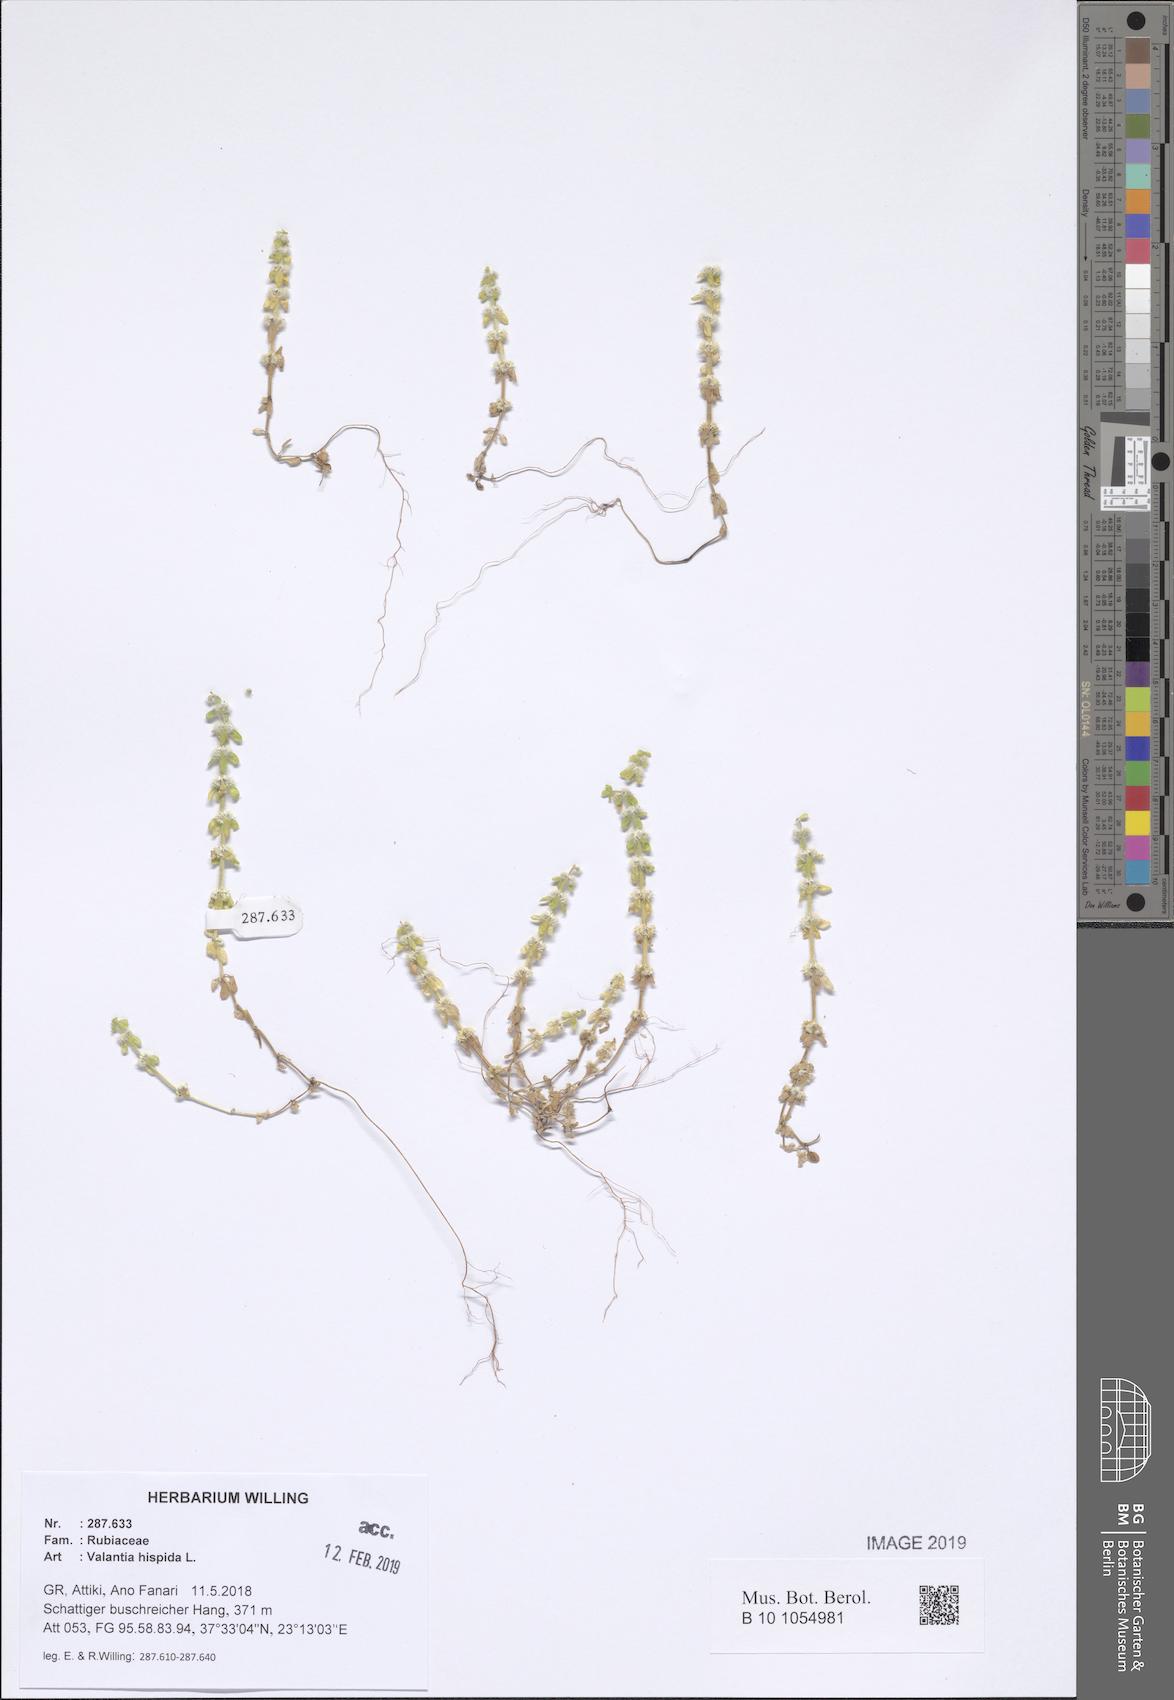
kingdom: Plantae
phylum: Tracheophyta
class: Magnoliopsida
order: Gentianales
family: Rubiaceae
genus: Valantia
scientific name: Valantia hispida
